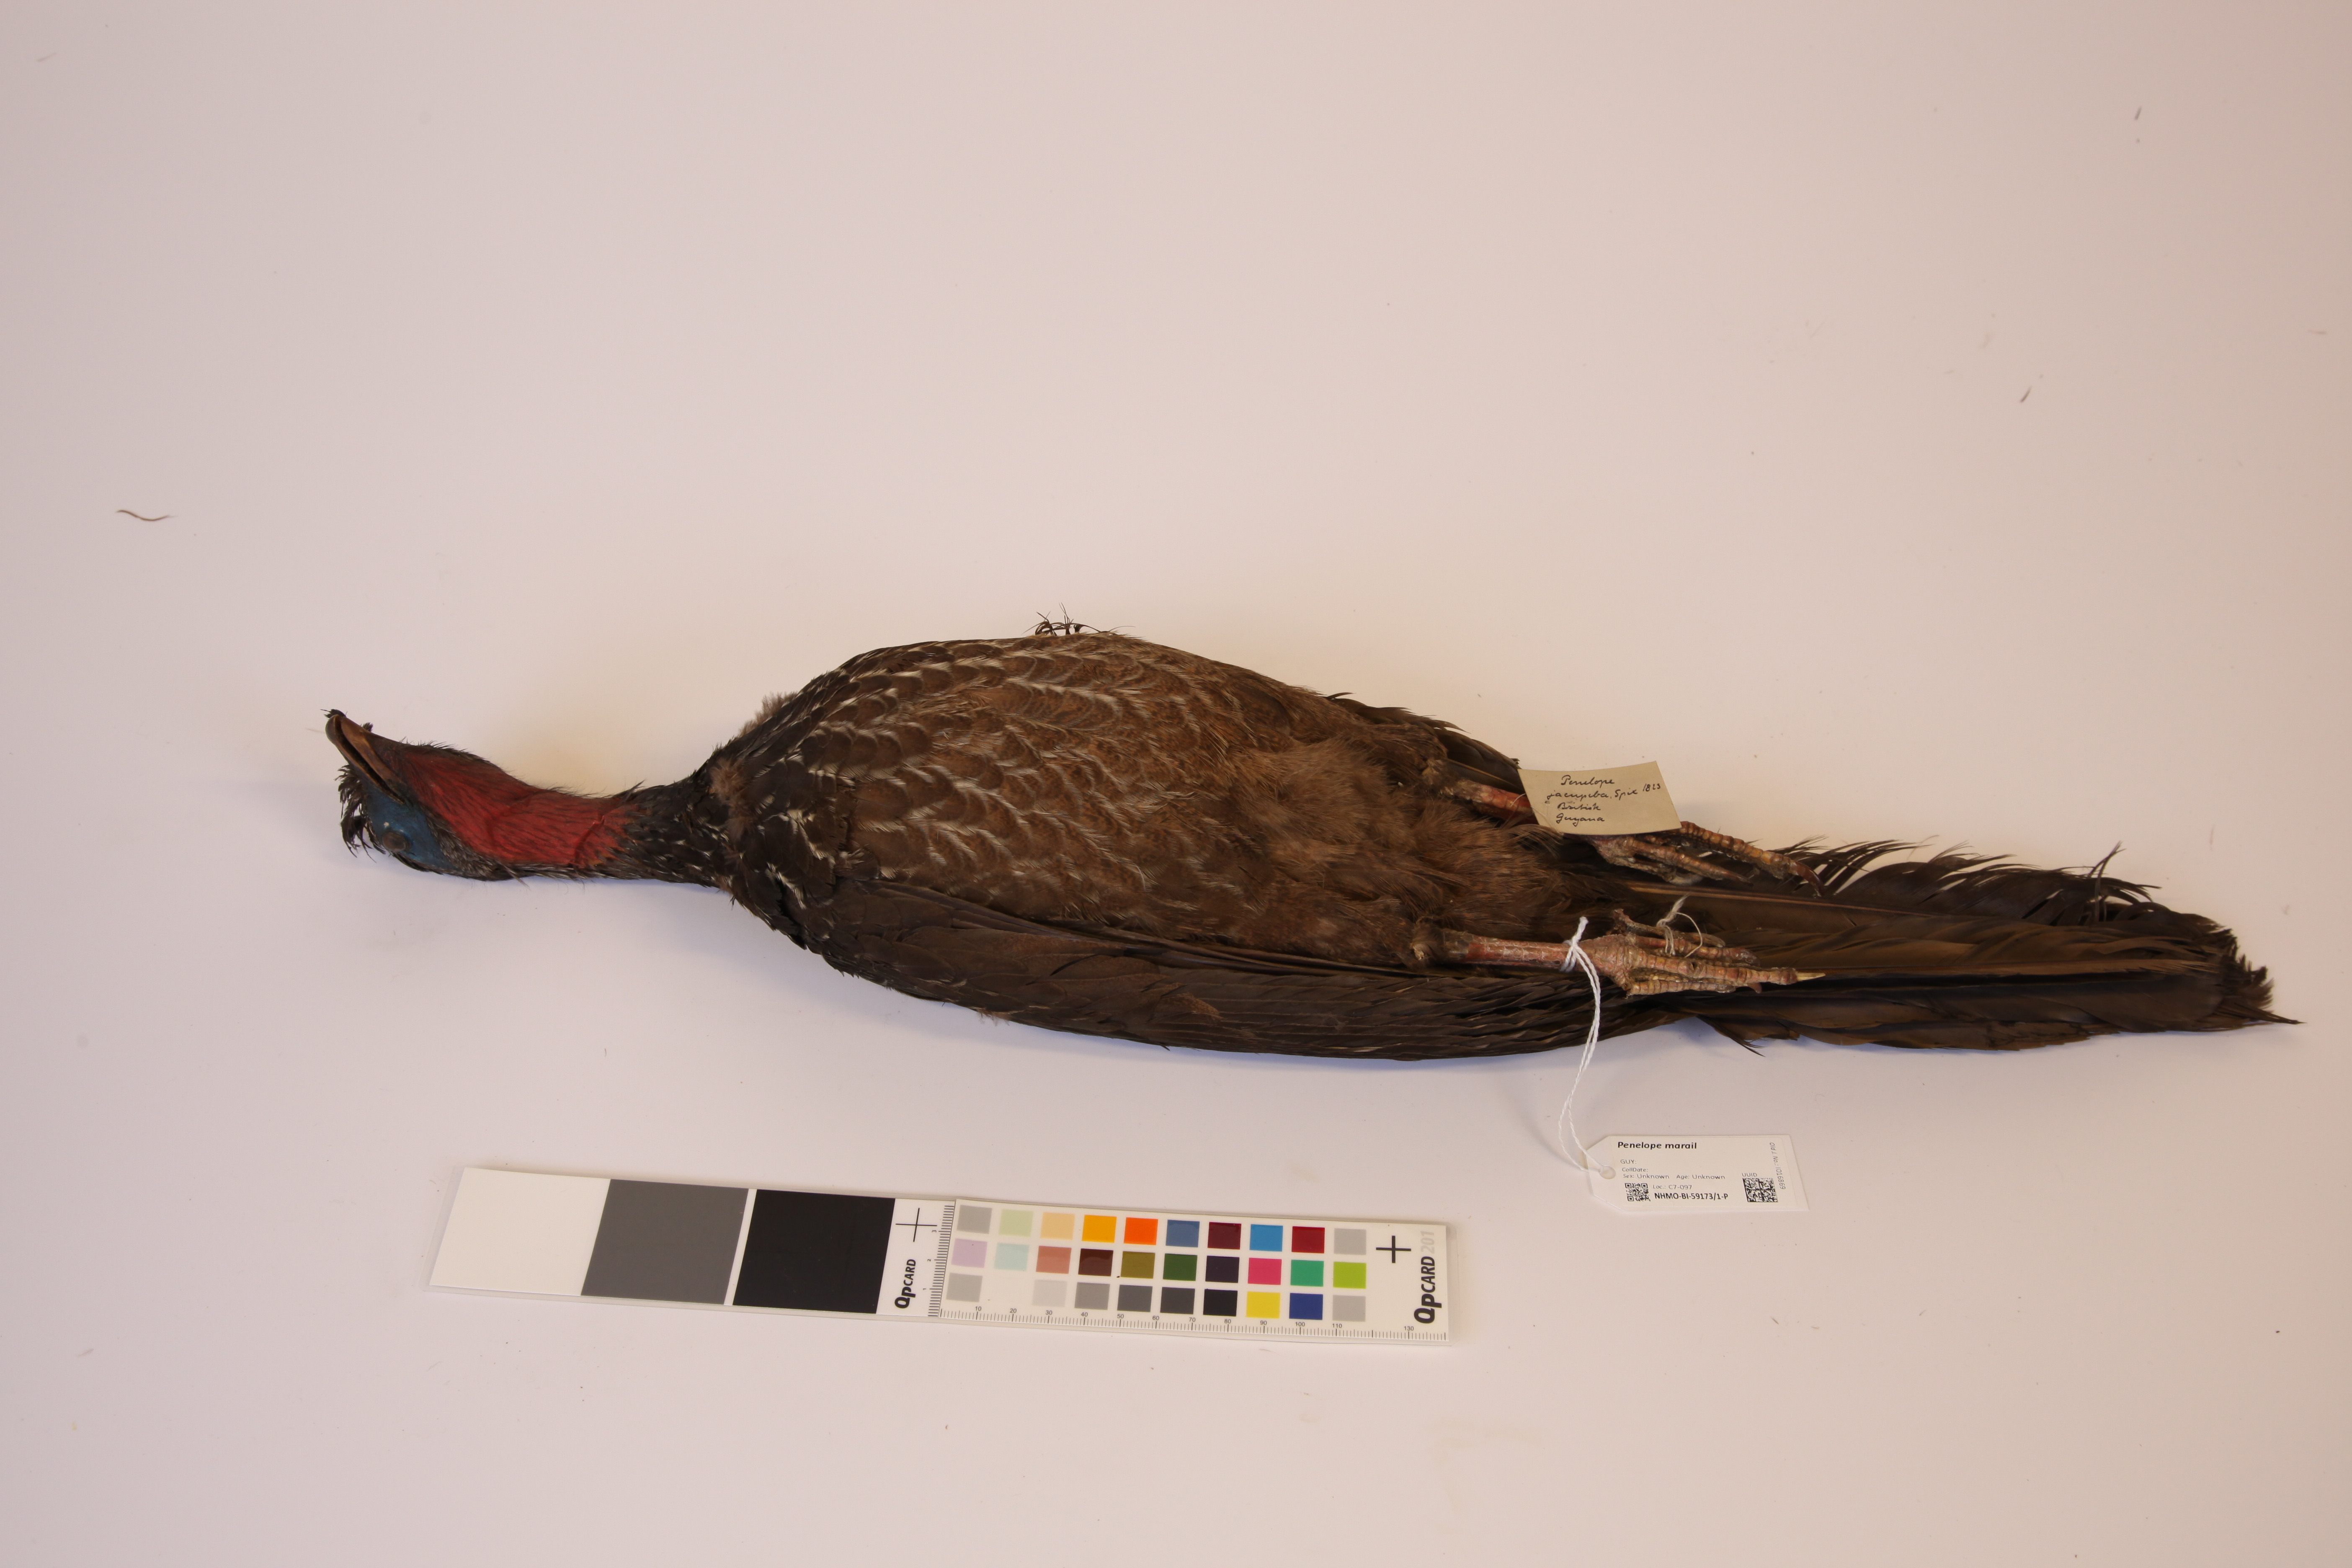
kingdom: Animalia
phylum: Chordata
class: Aves
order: Galliformes
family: Cracidae
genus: Penelope
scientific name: Penelope marail
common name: Marail guan
